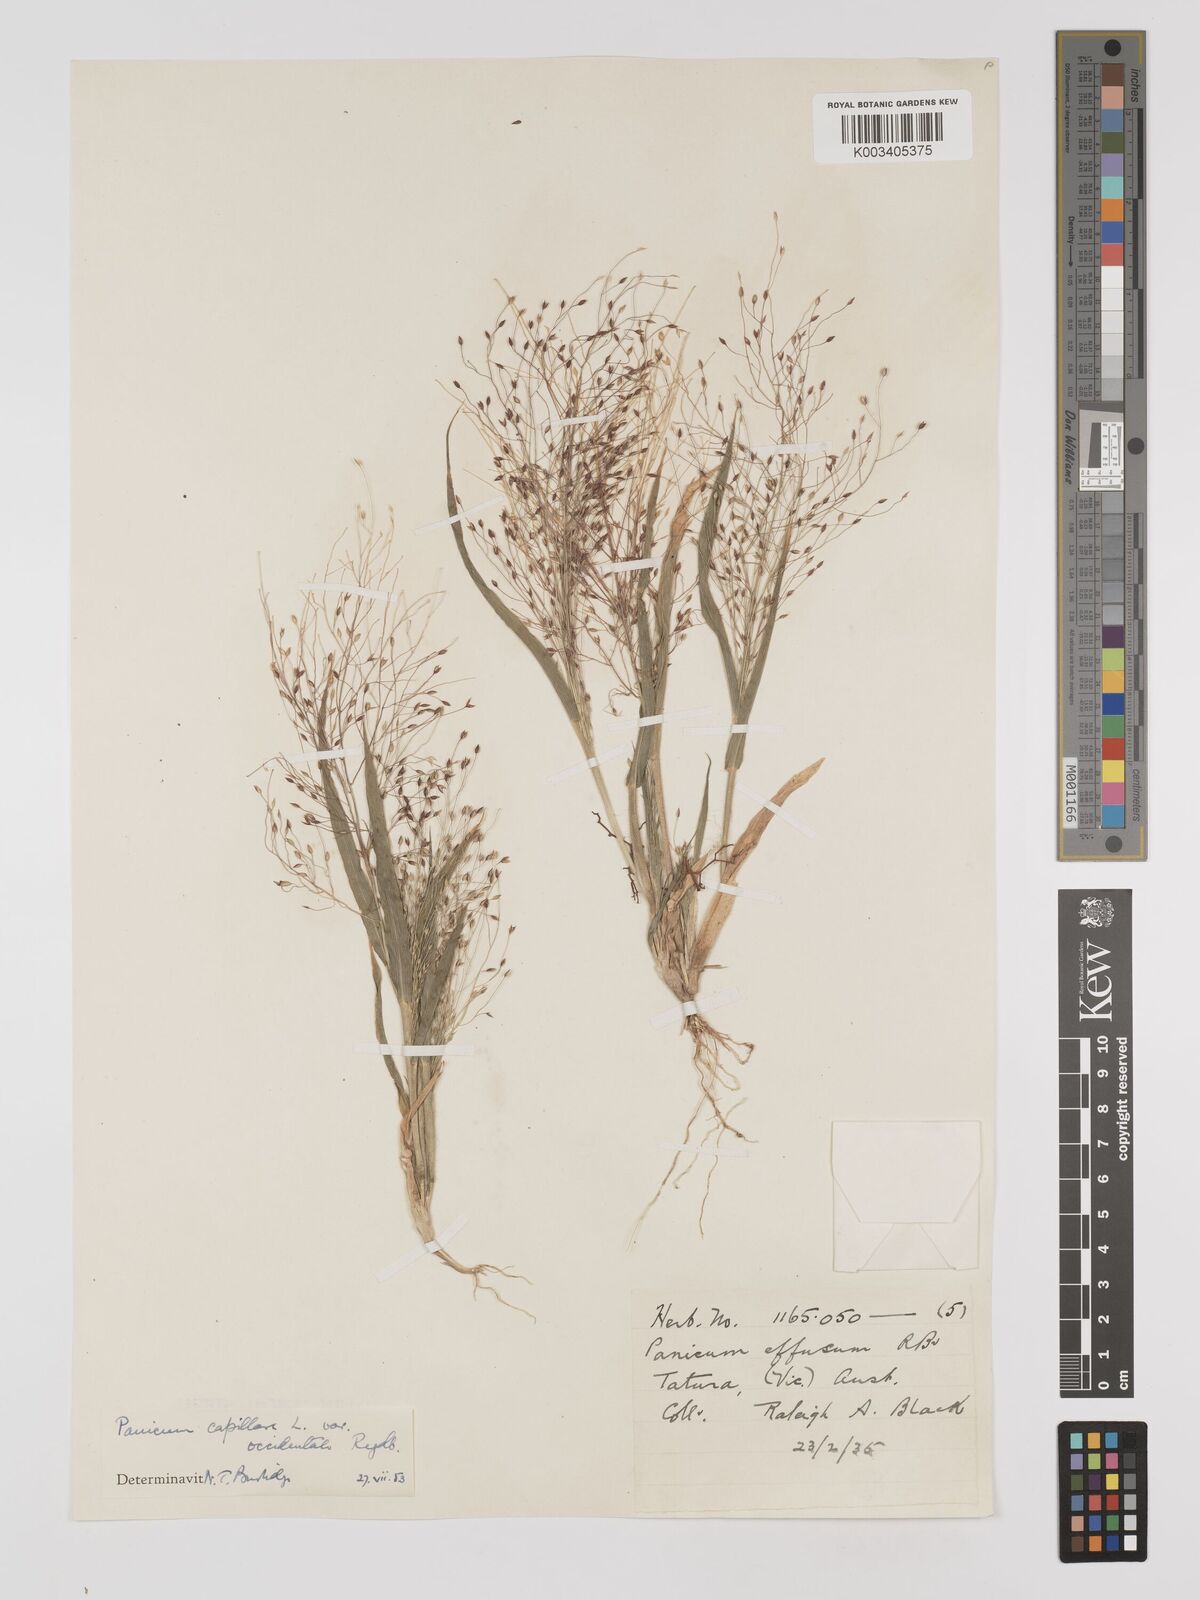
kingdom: Plantae
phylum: Tracheophyta
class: Liliopsida
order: Poales
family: Poaceae
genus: Panicum
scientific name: Panicum capillare
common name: Witch-grass
